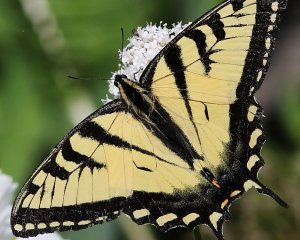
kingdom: Animalia
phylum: Arthropoda
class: Insecta
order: Lepidoptera
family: Papilionidae
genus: Pterourus
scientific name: Pterourus canadensis
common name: Canadian Tiger Swallowtail
